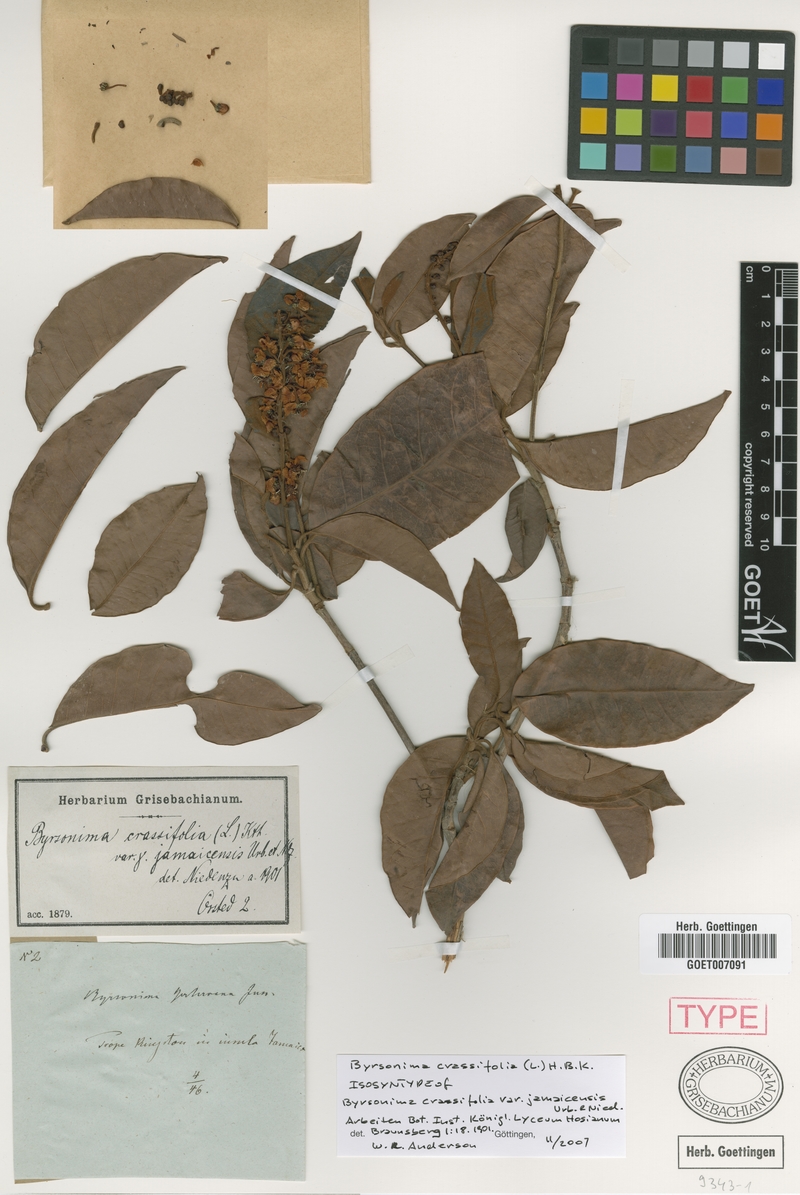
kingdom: Plantae
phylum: Tracheophyta
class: Magnoliopsida
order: Malpighiales
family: Malpighiaceae
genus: Byrsonima
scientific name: Byrsonima crassifolia
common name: Golden spoon
